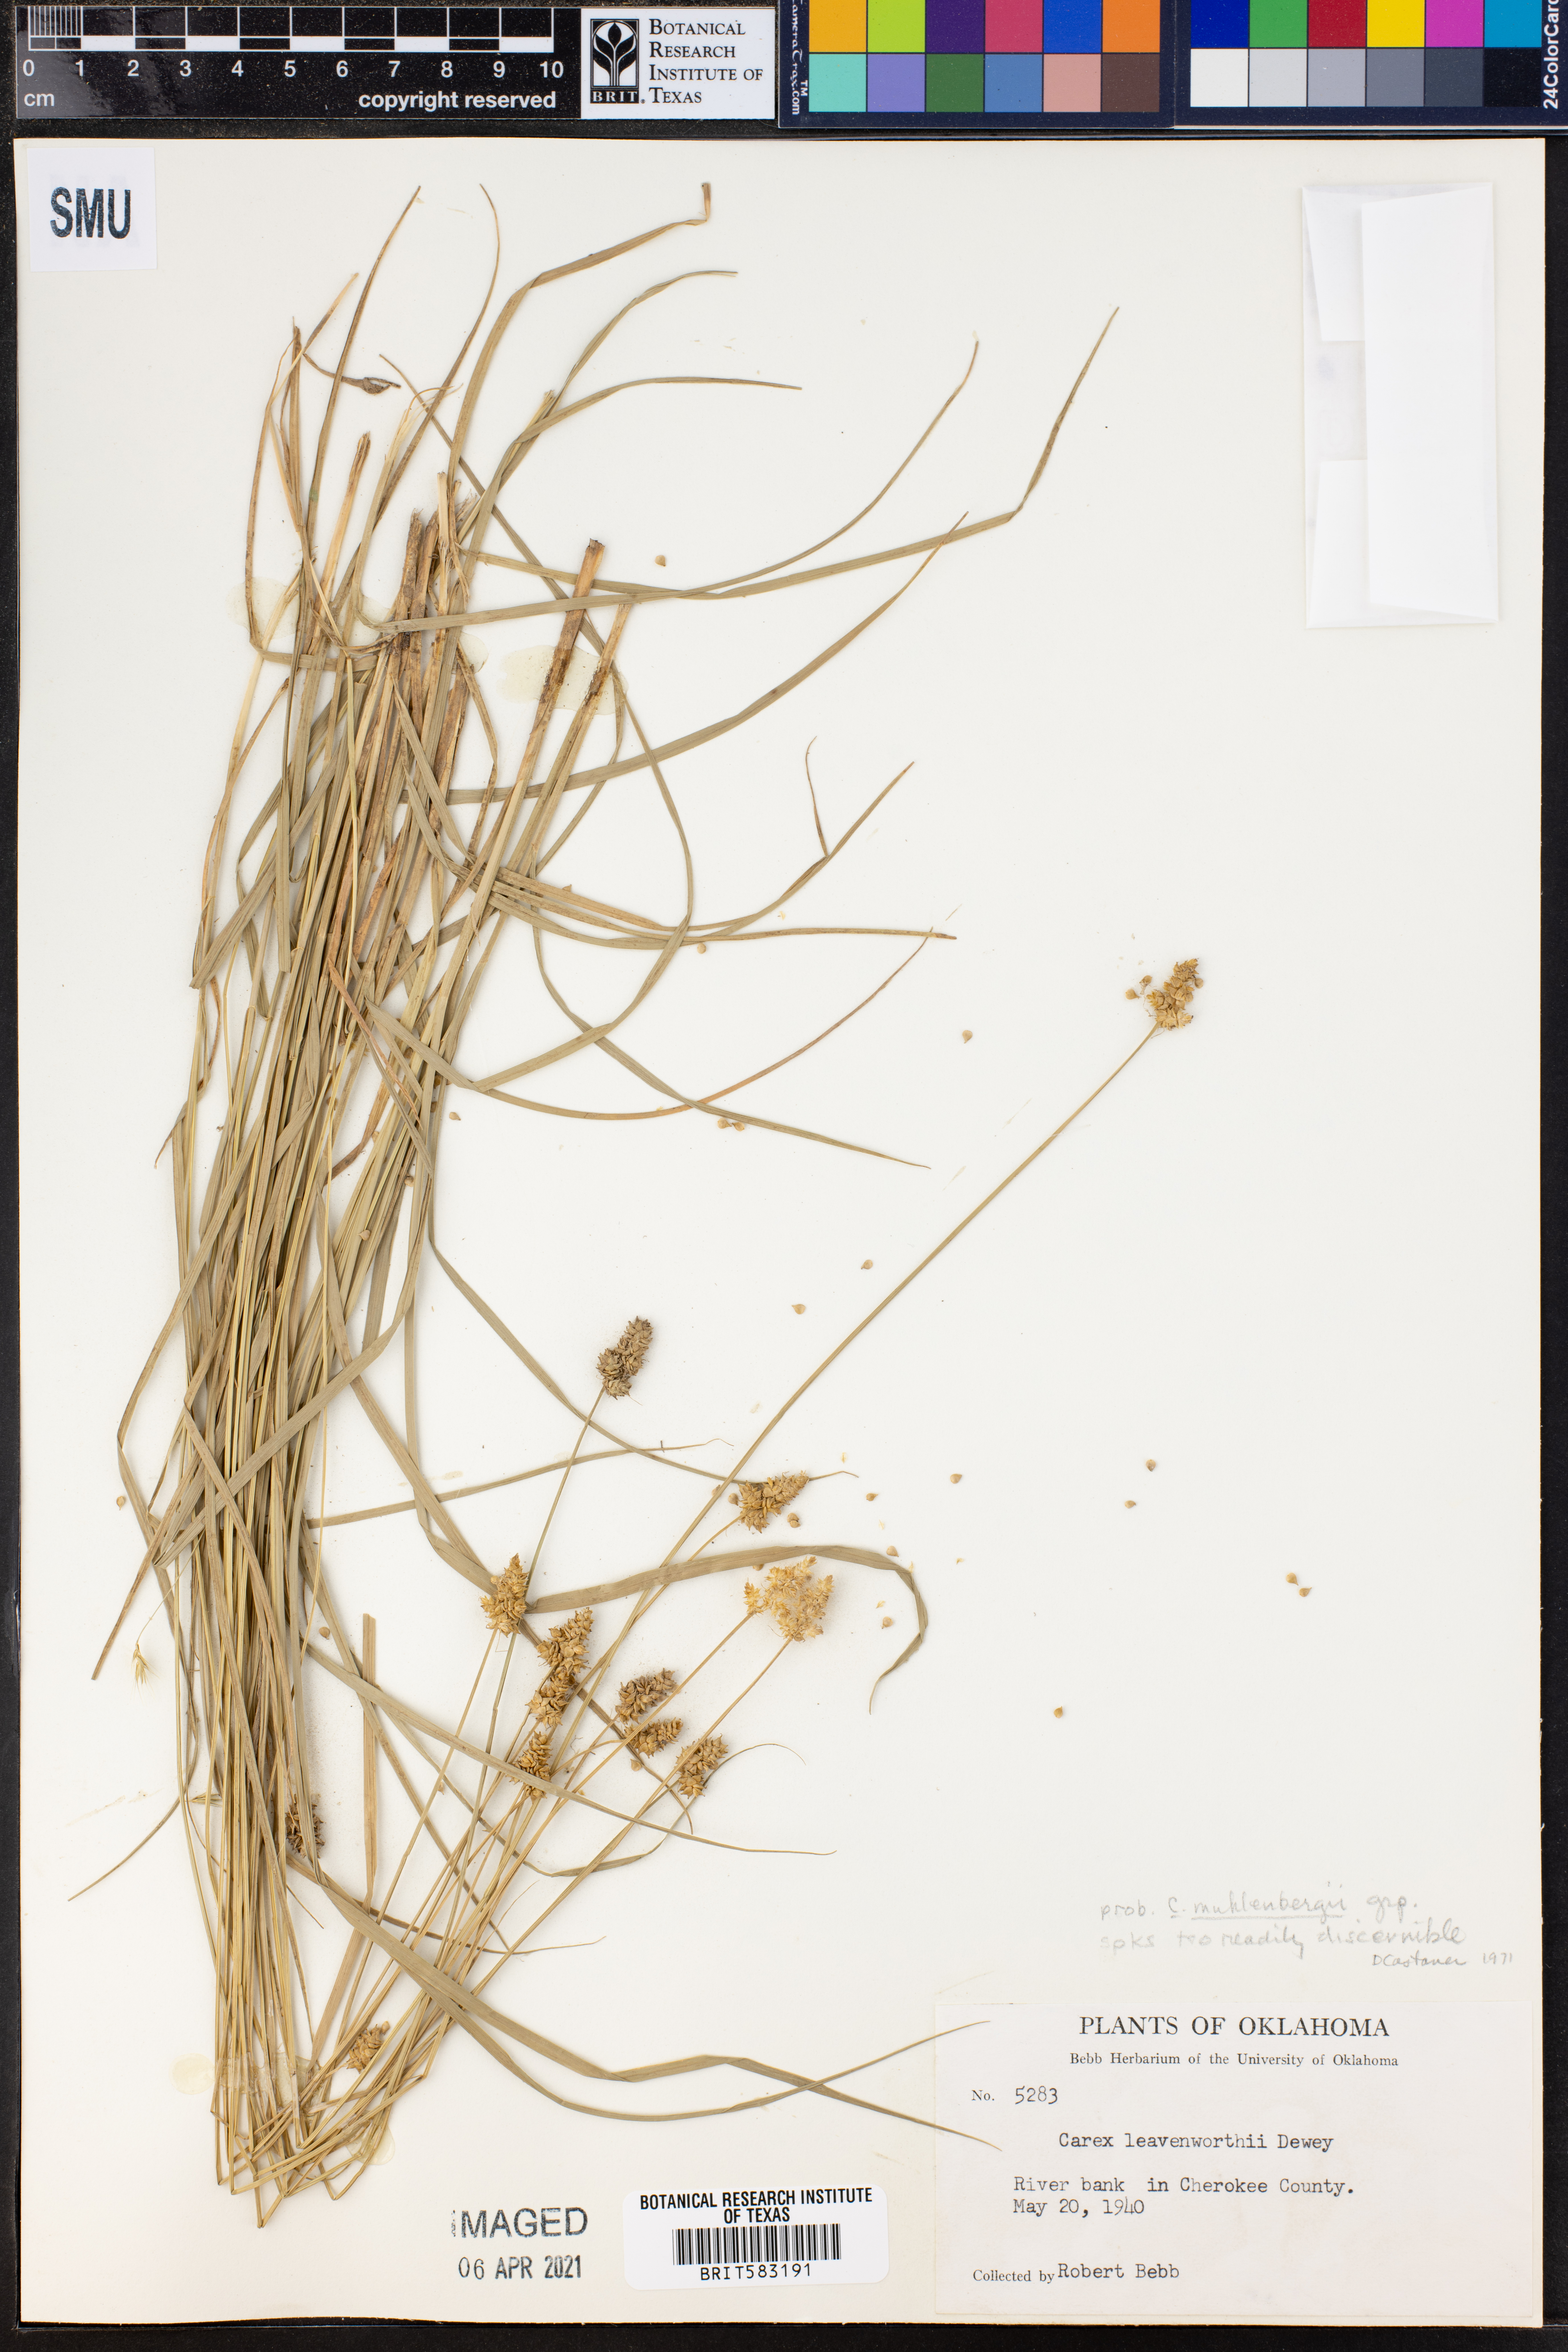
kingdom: Plantae
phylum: Tracheophyta
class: Liliopsida
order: Poales
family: Cyperaceae
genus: Carex
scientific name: Carex vulpinoidea
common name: American fox-sedge
